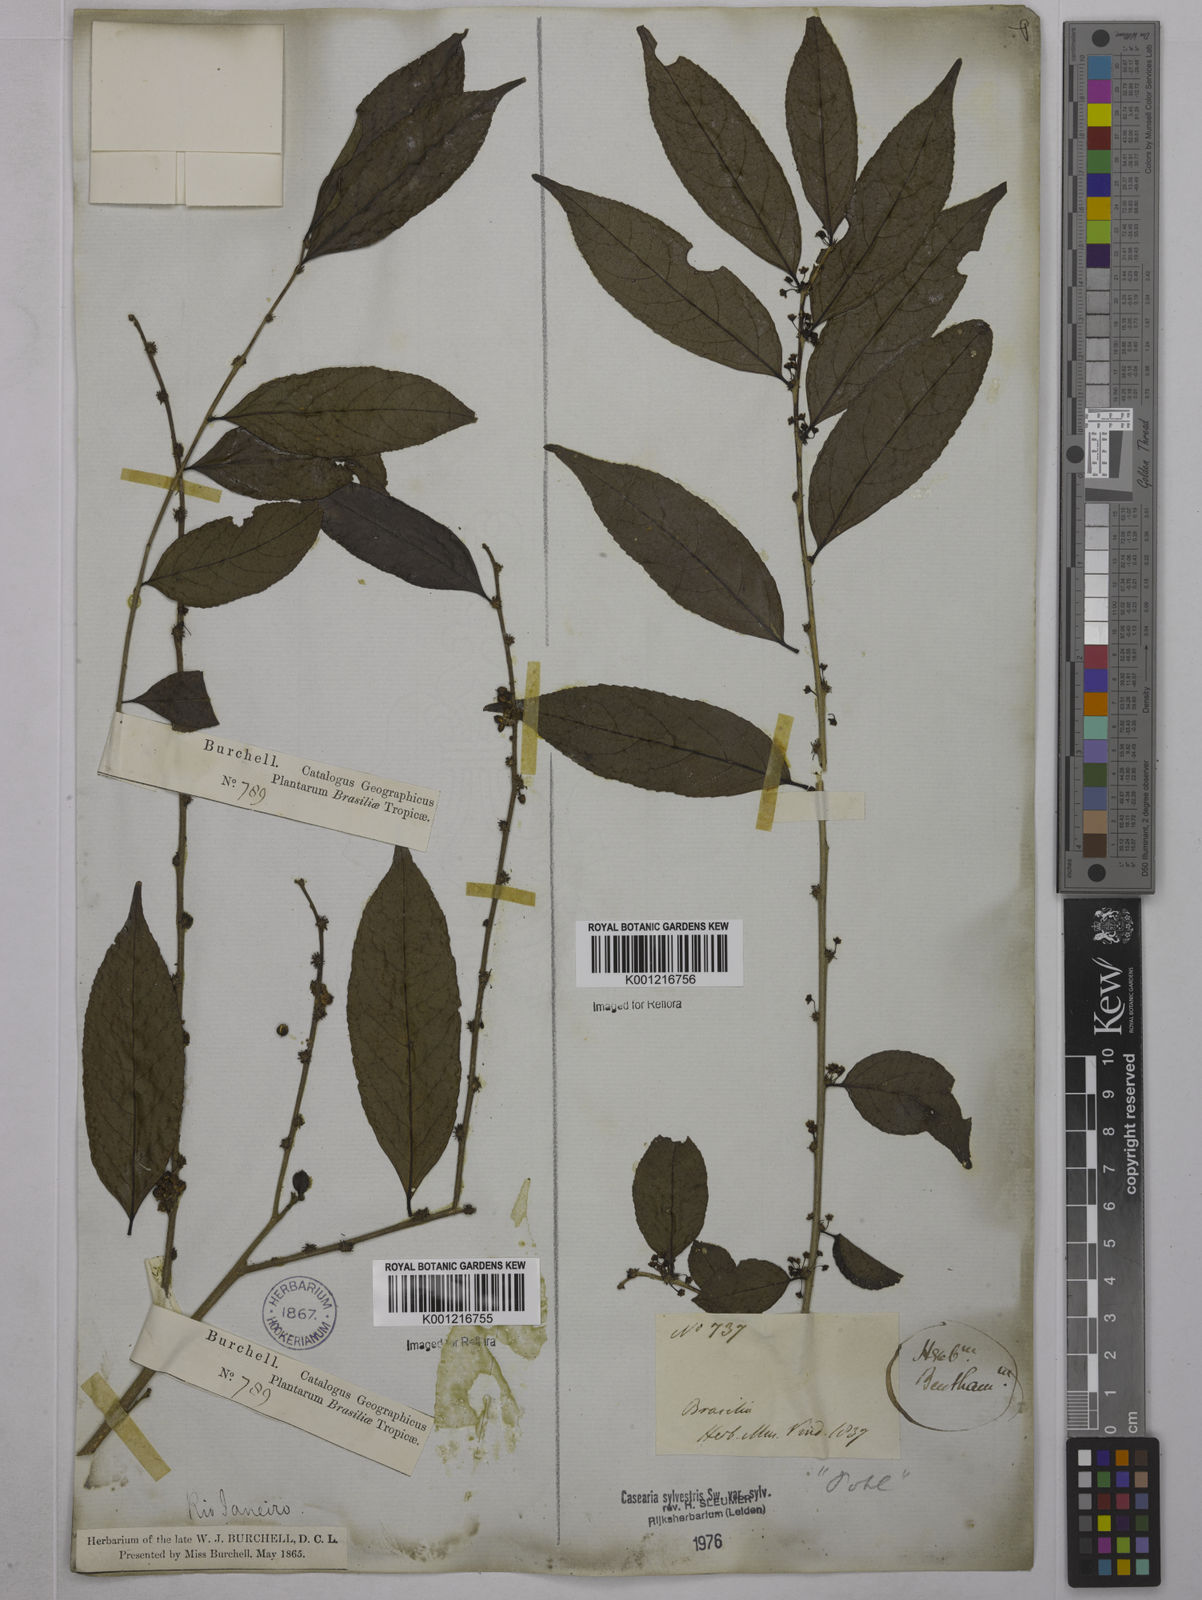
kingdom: Plantae
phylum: Tracheophyta
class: Magnoliopsida
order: Malpighiales
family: Salicaceae
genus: Casearia
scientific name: Casearia sylvestris
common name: Wild sage
